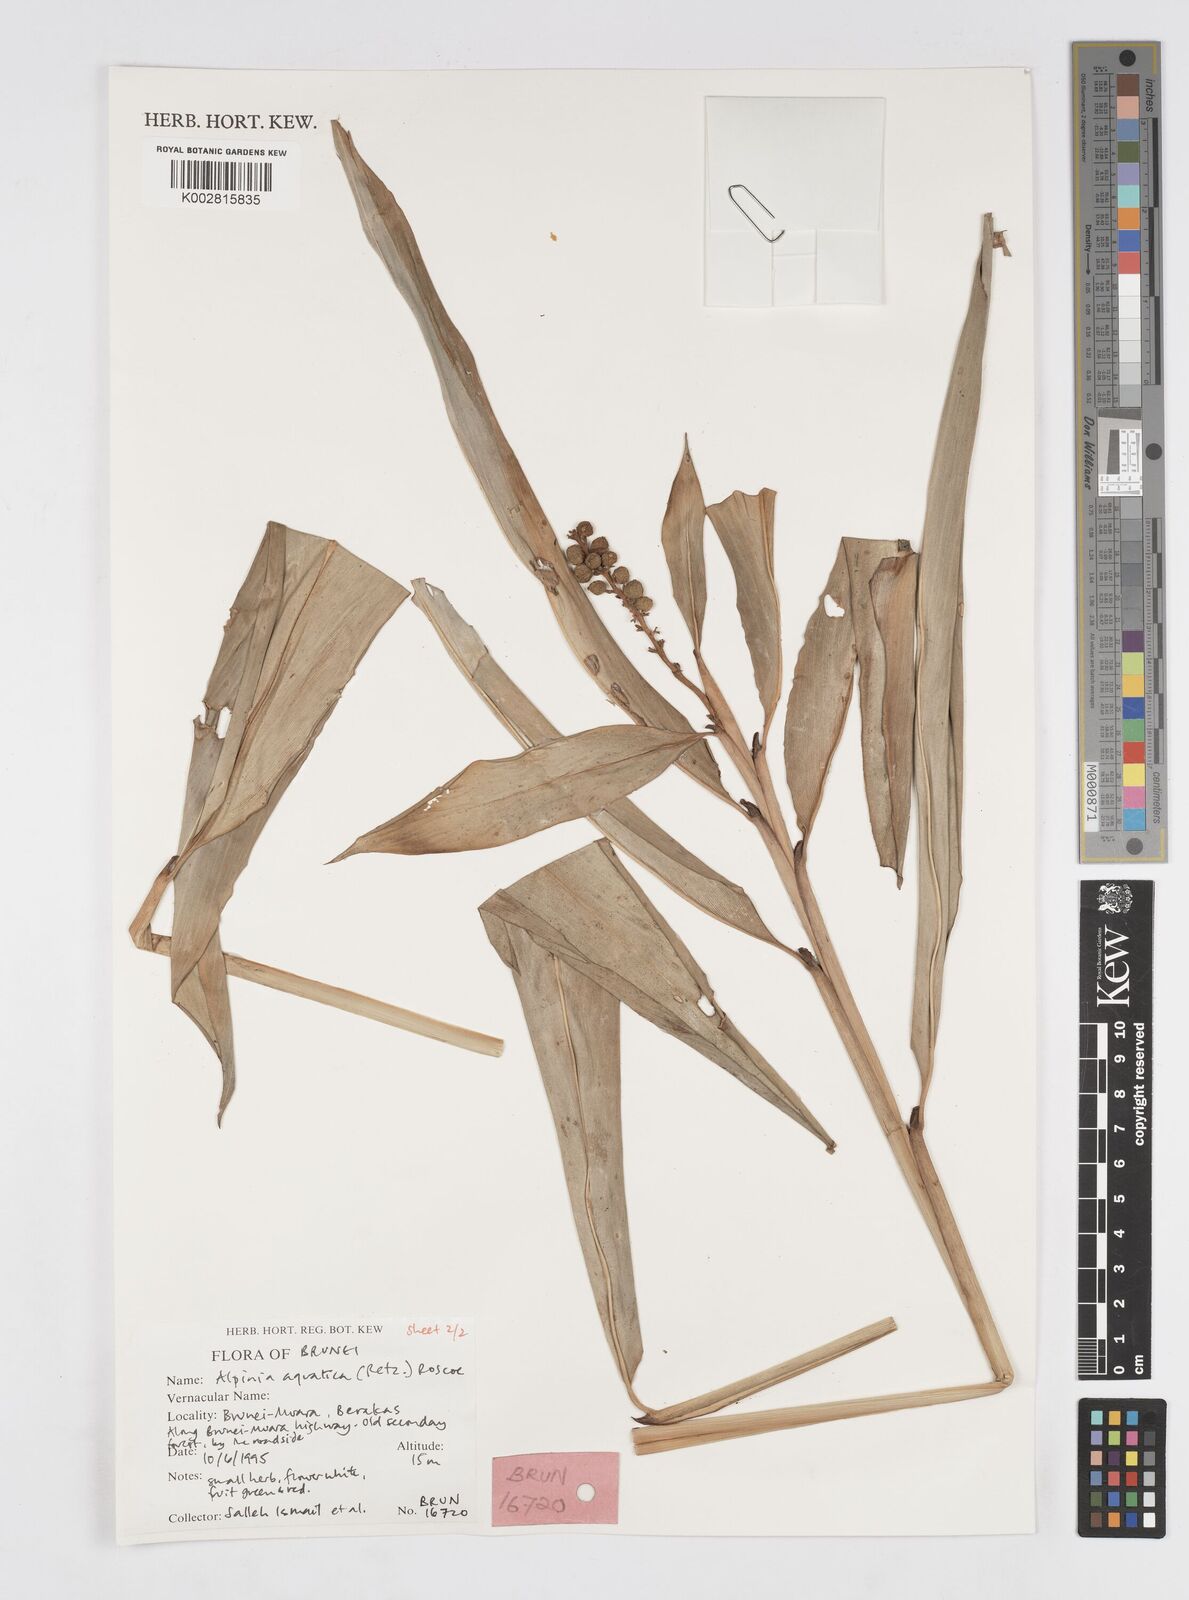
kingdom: Plantae
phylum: Tracheophyta
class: Liliopsida
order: Zingiberales
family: Zingiberaceae
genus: Alpinia
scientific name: Alpinia aquatica
